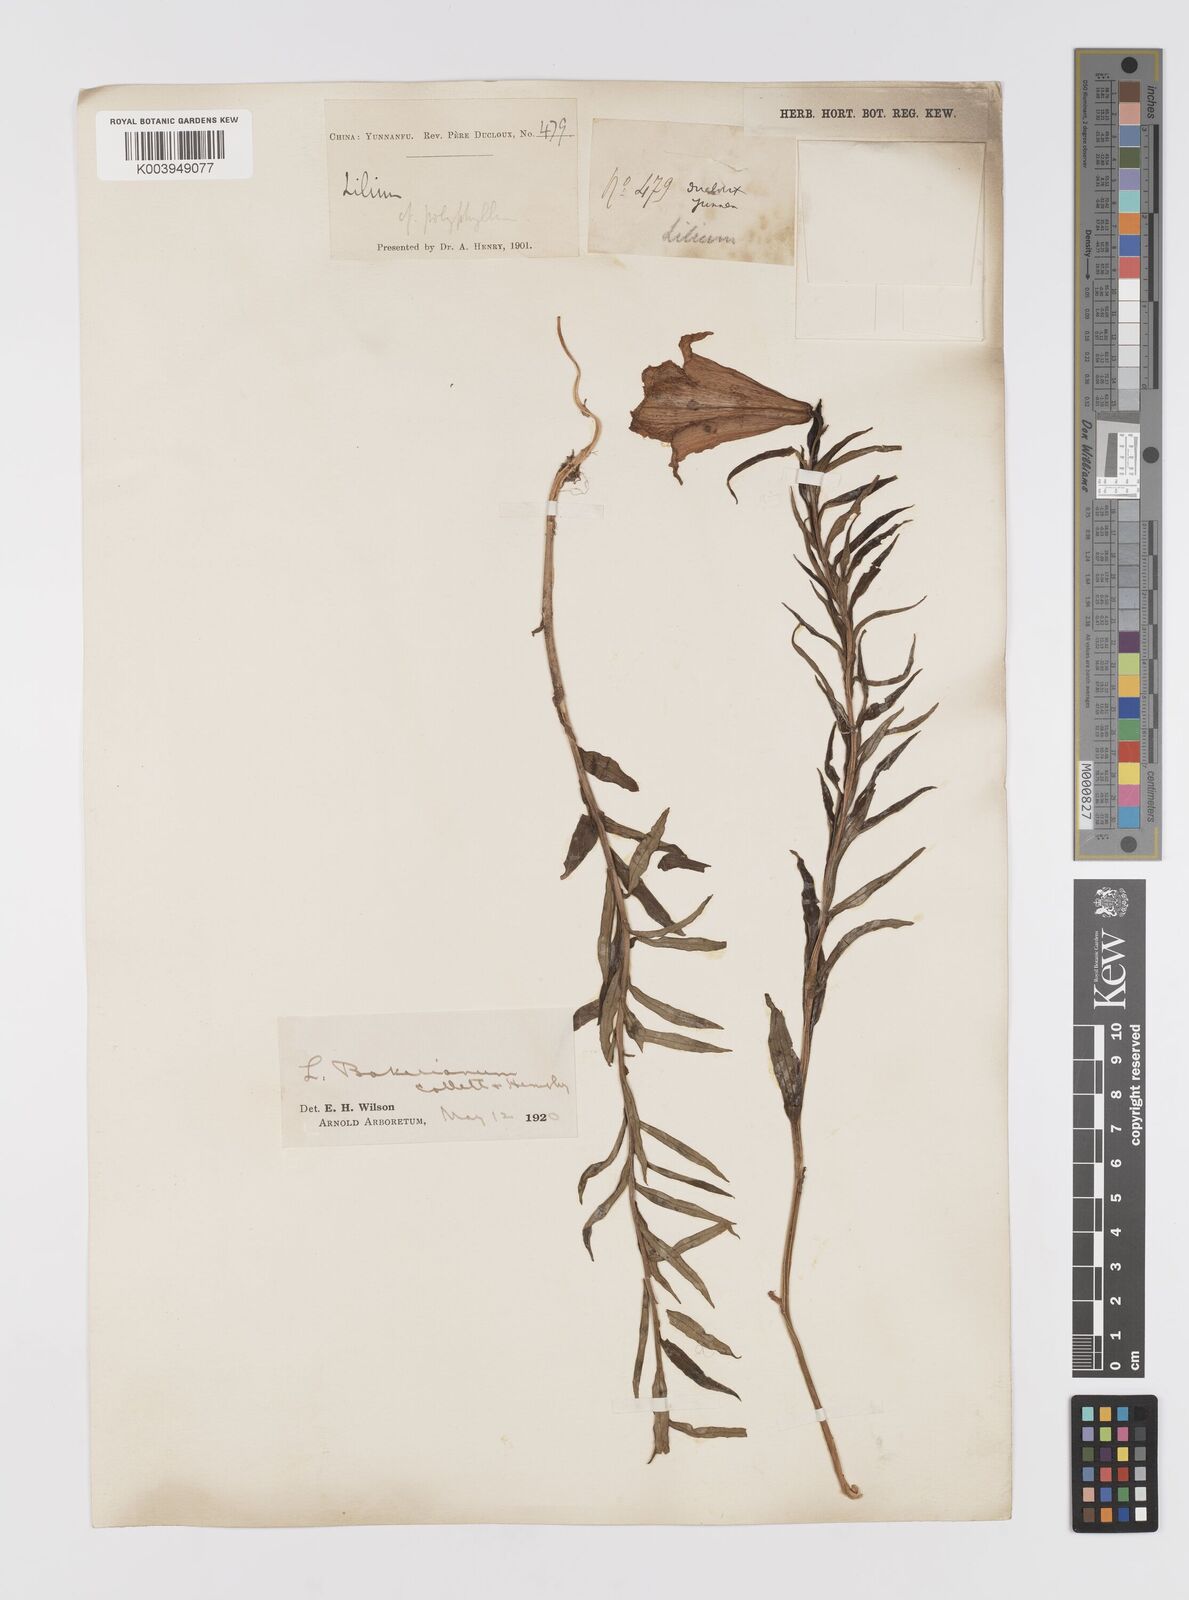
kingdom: Plantae
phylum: Tracheophyta
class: Liliopsida
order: Liliales
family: Liliaceae
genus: Lilium
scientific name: Lilium bakerianum
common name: Baker's lily
